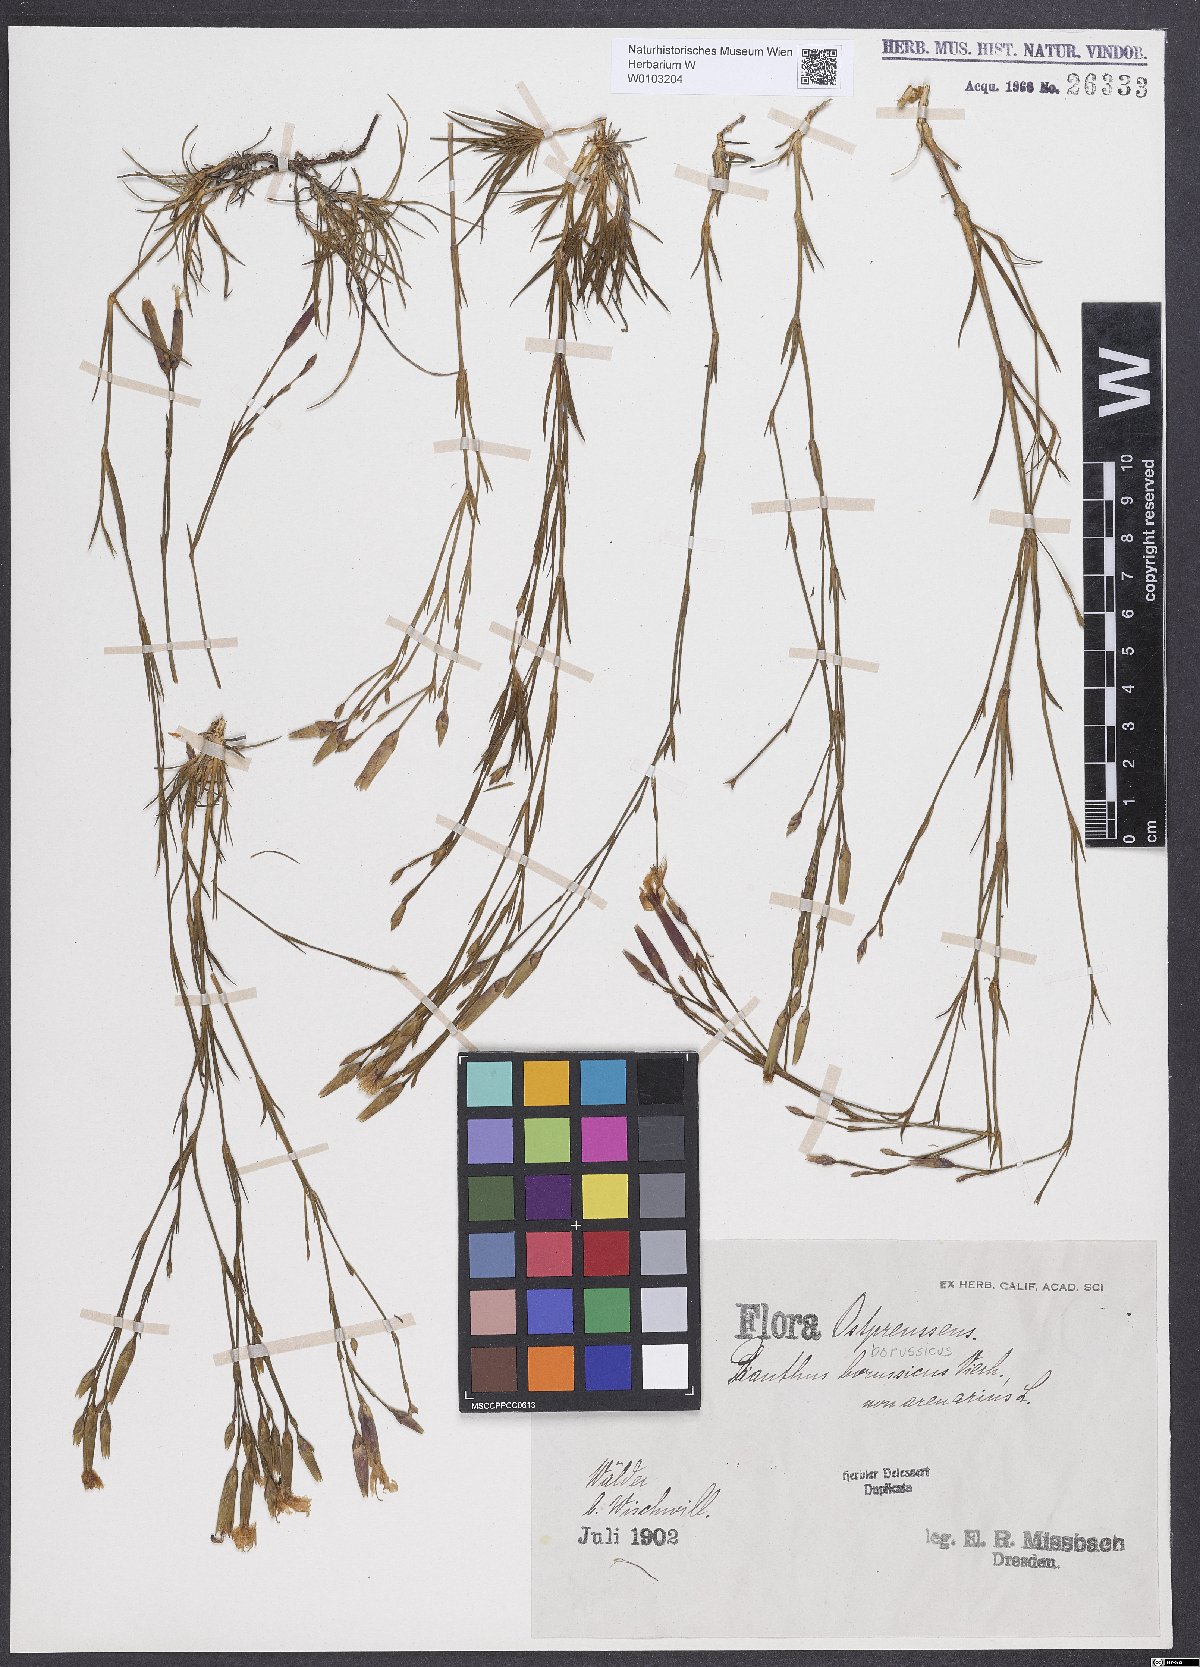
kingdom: Plantae
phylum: Tracheophyta
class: Magnoliopsida
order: Caryophyllales
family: Caryophyllaceae
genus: Dianthus
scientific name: Dianthus arenarius
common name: Stone pink
